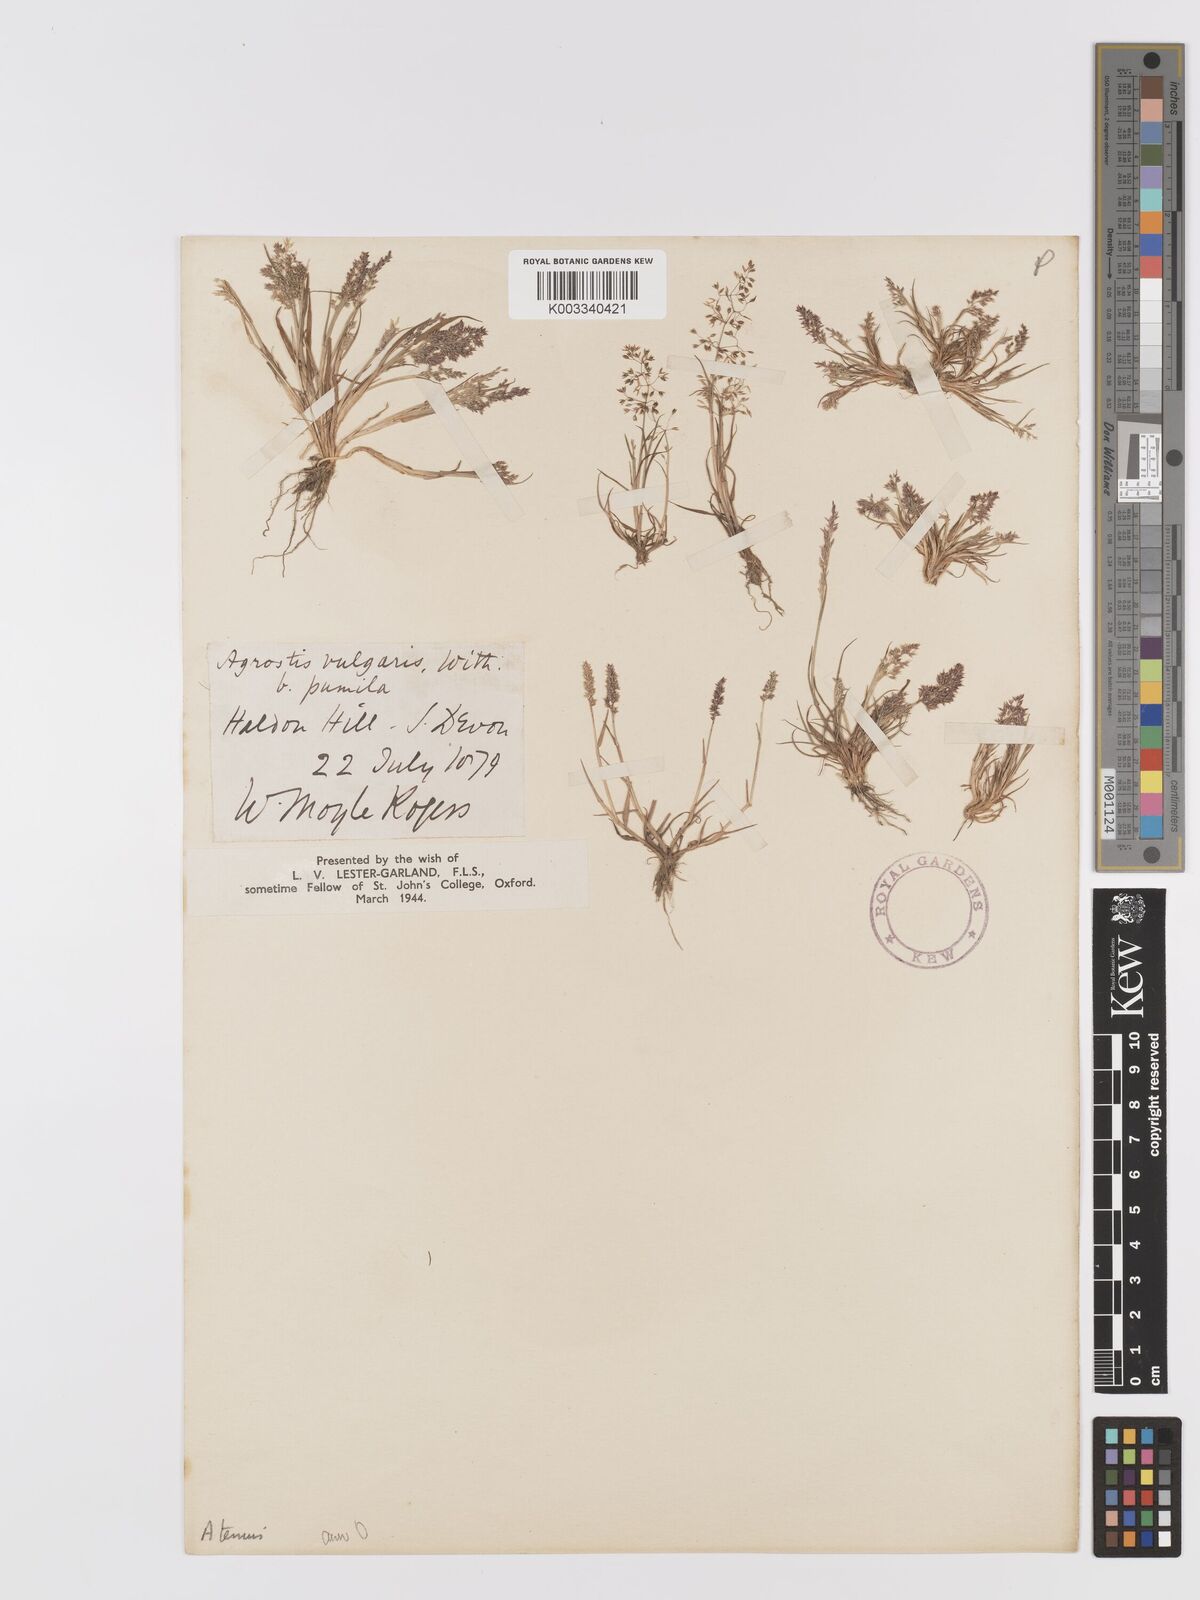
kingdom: Plantae
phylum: Tracheophyta
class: Liliopsida
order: Poales
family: Poaceae
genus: Agrostis
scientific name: Agrostis capillaris
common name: Colonial bentgrass
